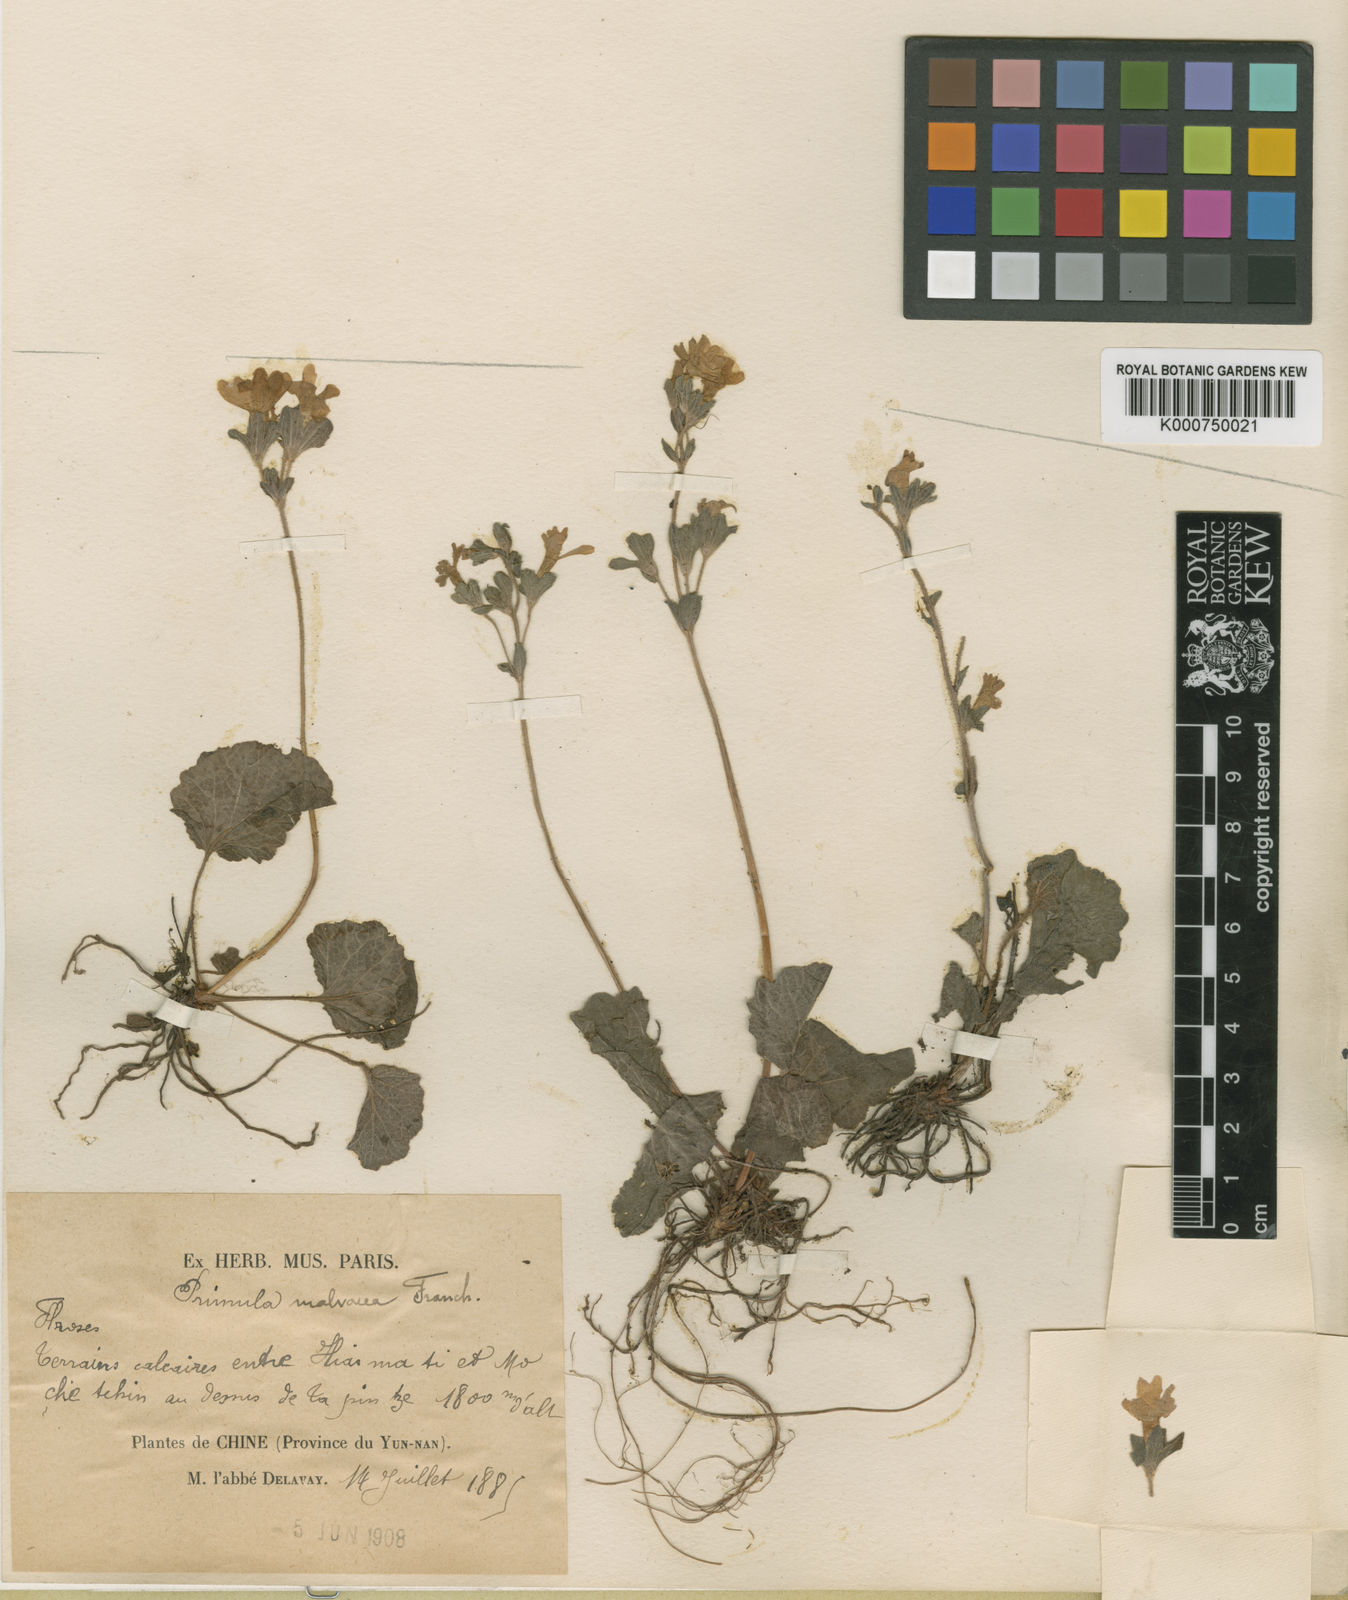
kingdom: Plantae
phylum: Tracheophyta
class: Magnoliopsida
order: Ericales
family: Primulaceae
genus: Primula
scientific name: Primula malvacea
